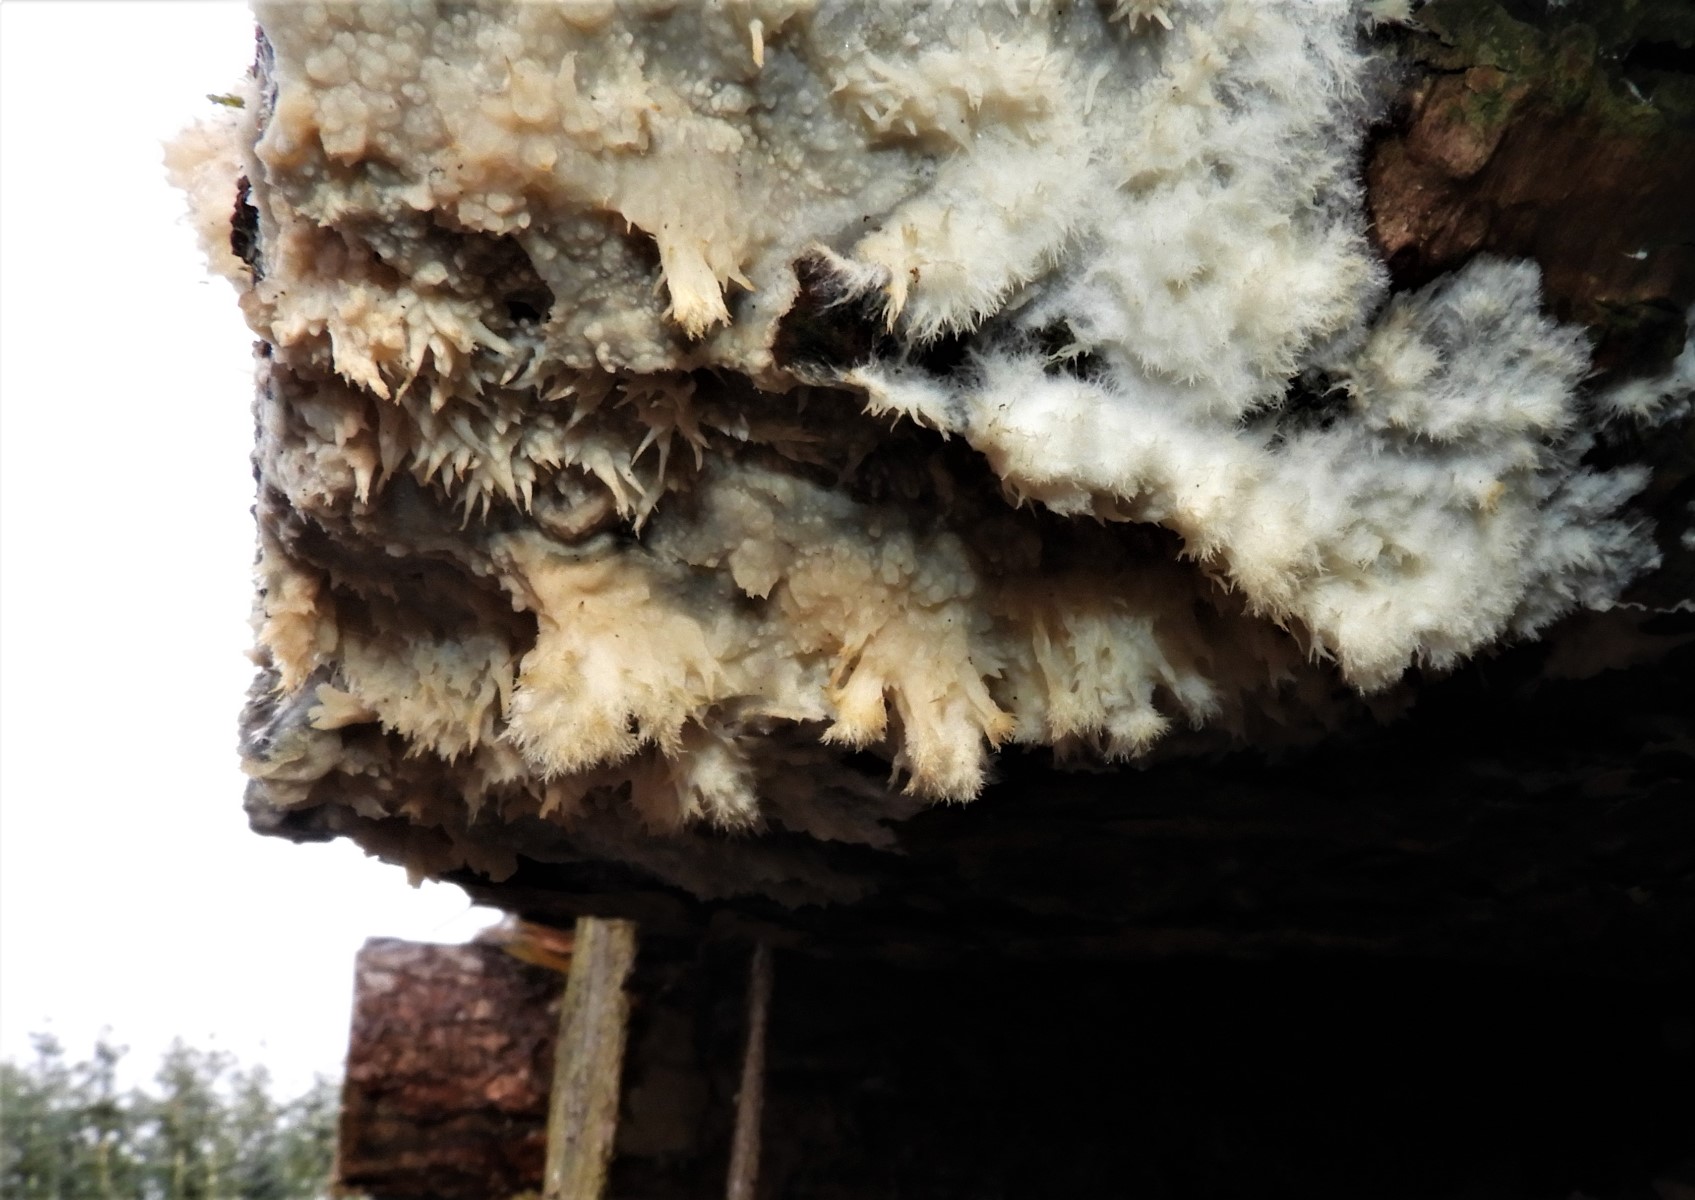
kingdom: Fungi
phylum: Basidiomycota
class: Agaricomycetes
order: Polyporales
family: Phanerochaetaceae
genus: Phlebiopsis
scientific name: Phlebiopsis gigantea
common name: kæmpebarksvamp
